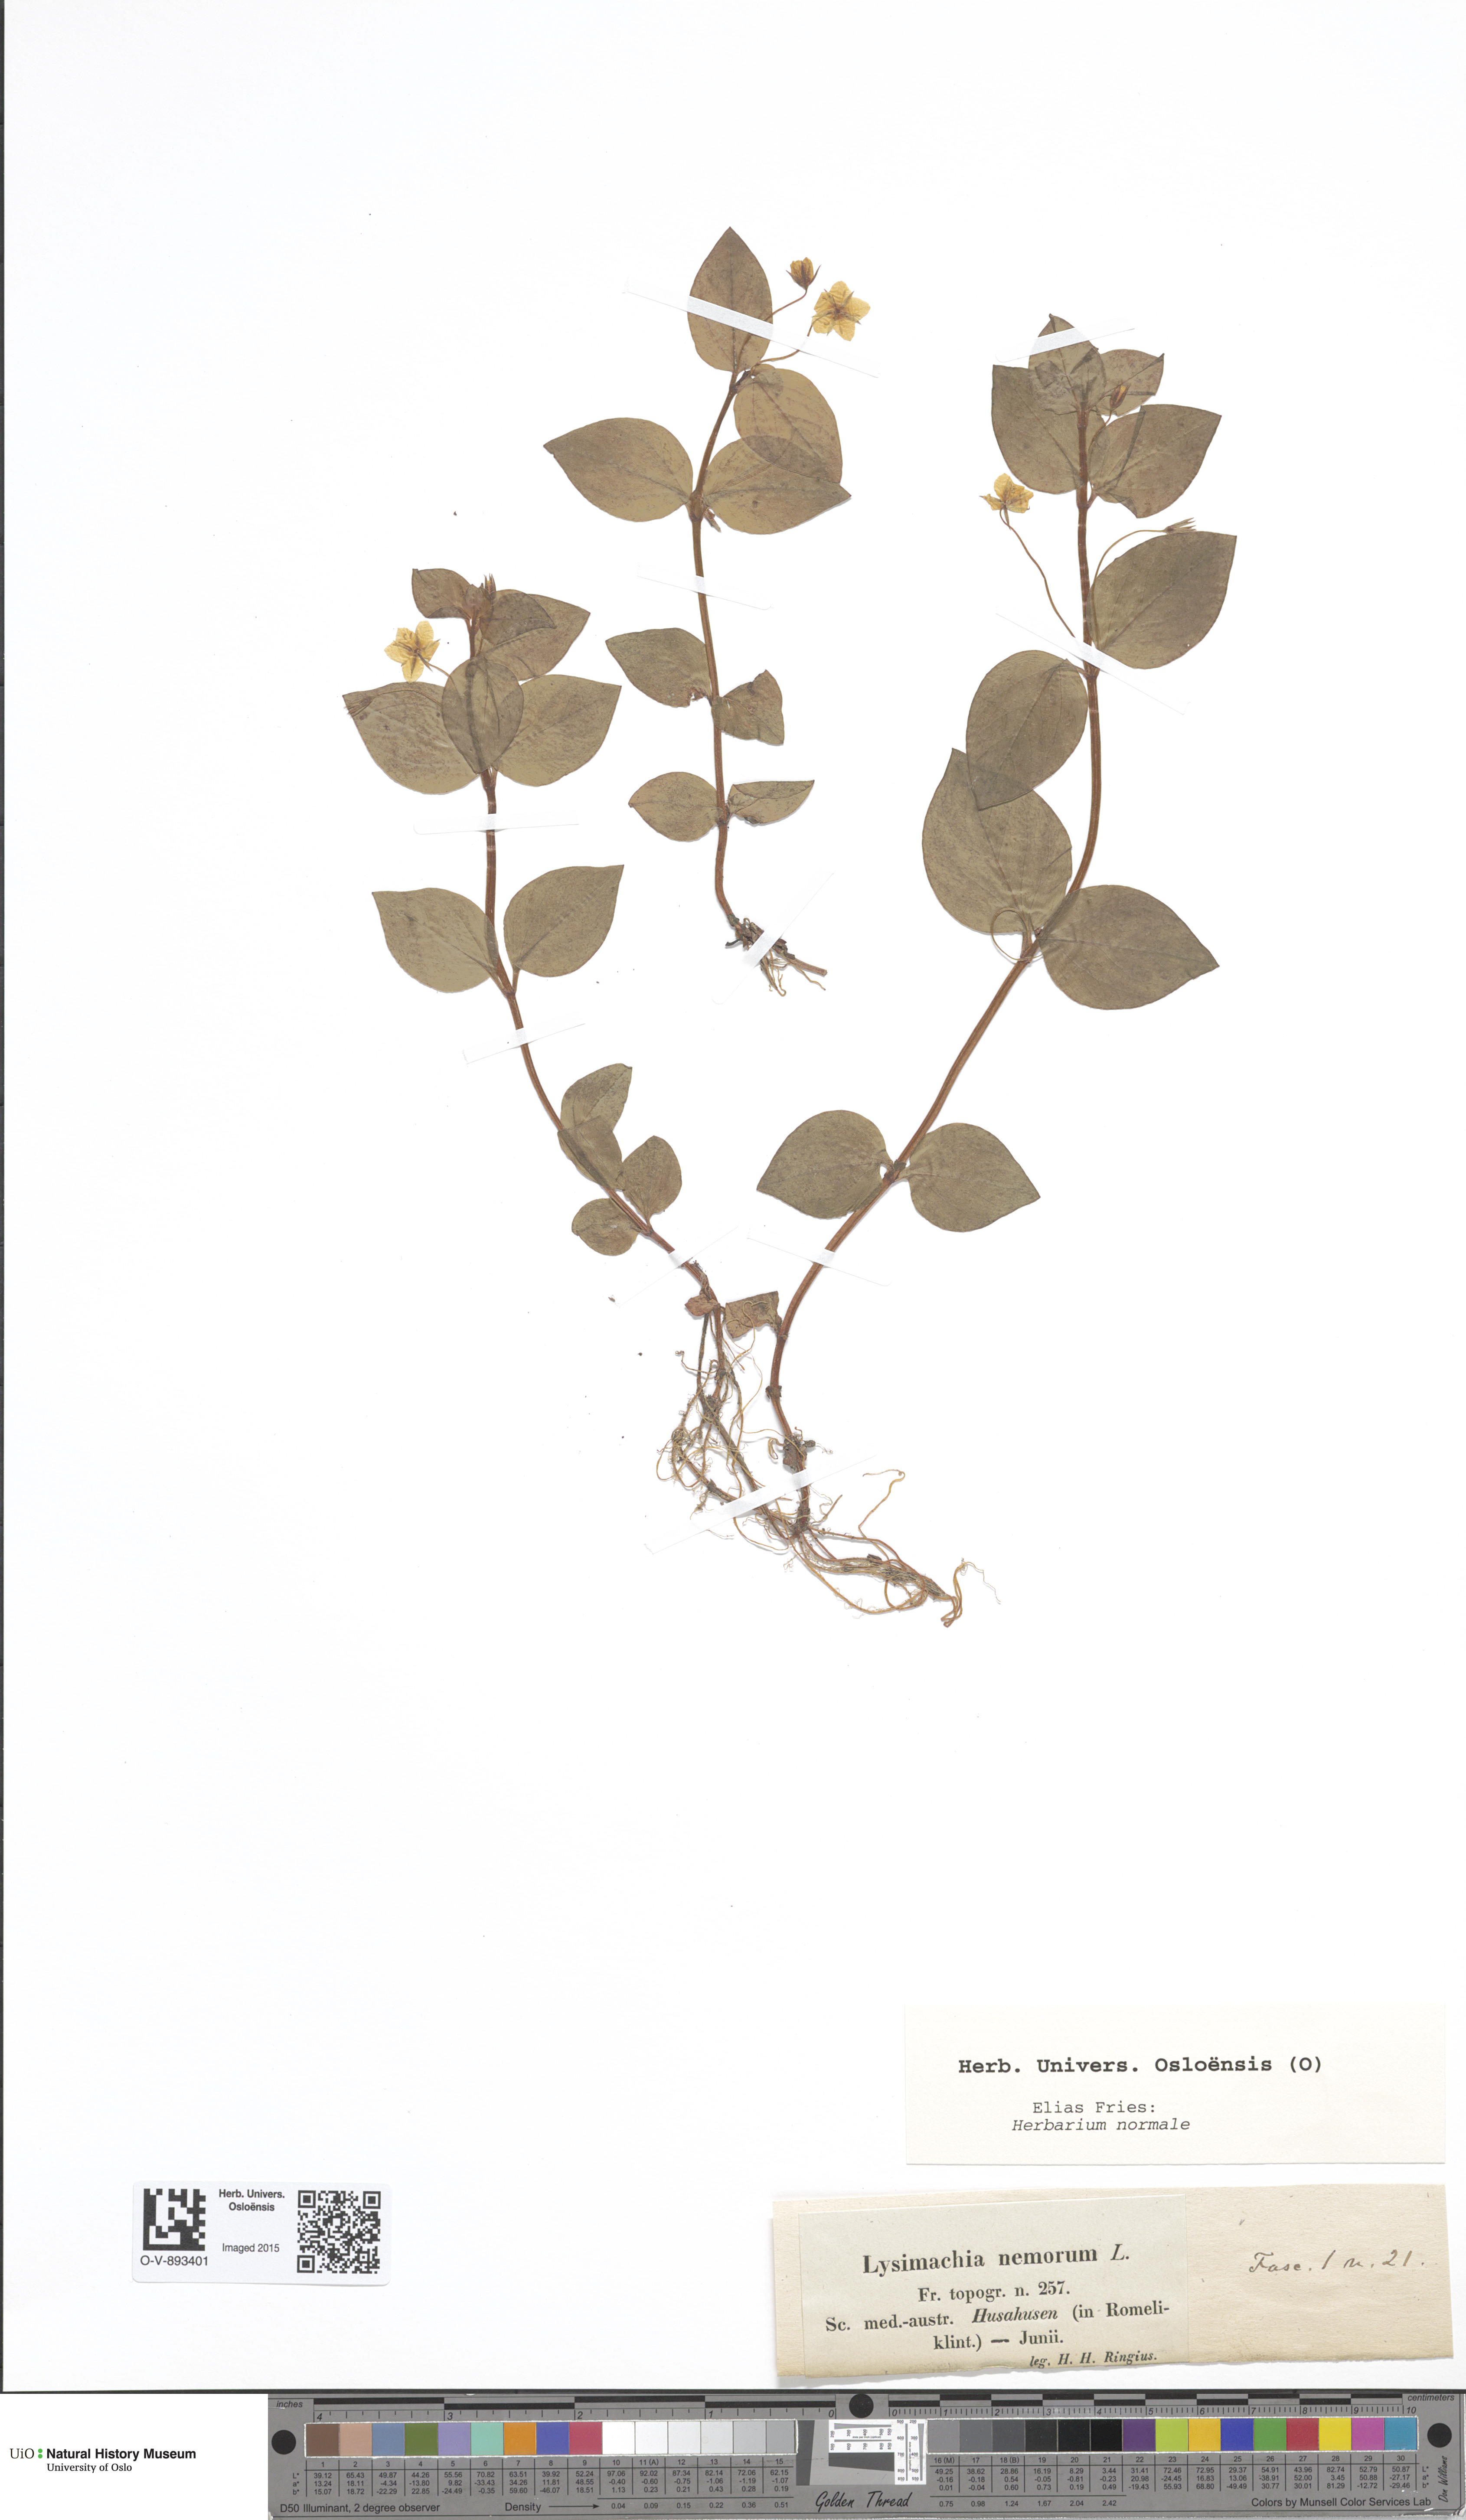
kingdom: Plantae
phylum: Tracheophyta
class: Magnoliopsida
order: Ericales
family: Primulaceae
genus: Lysimachia
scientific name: Lysimachia nemorum
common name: Yellow pimpernel
